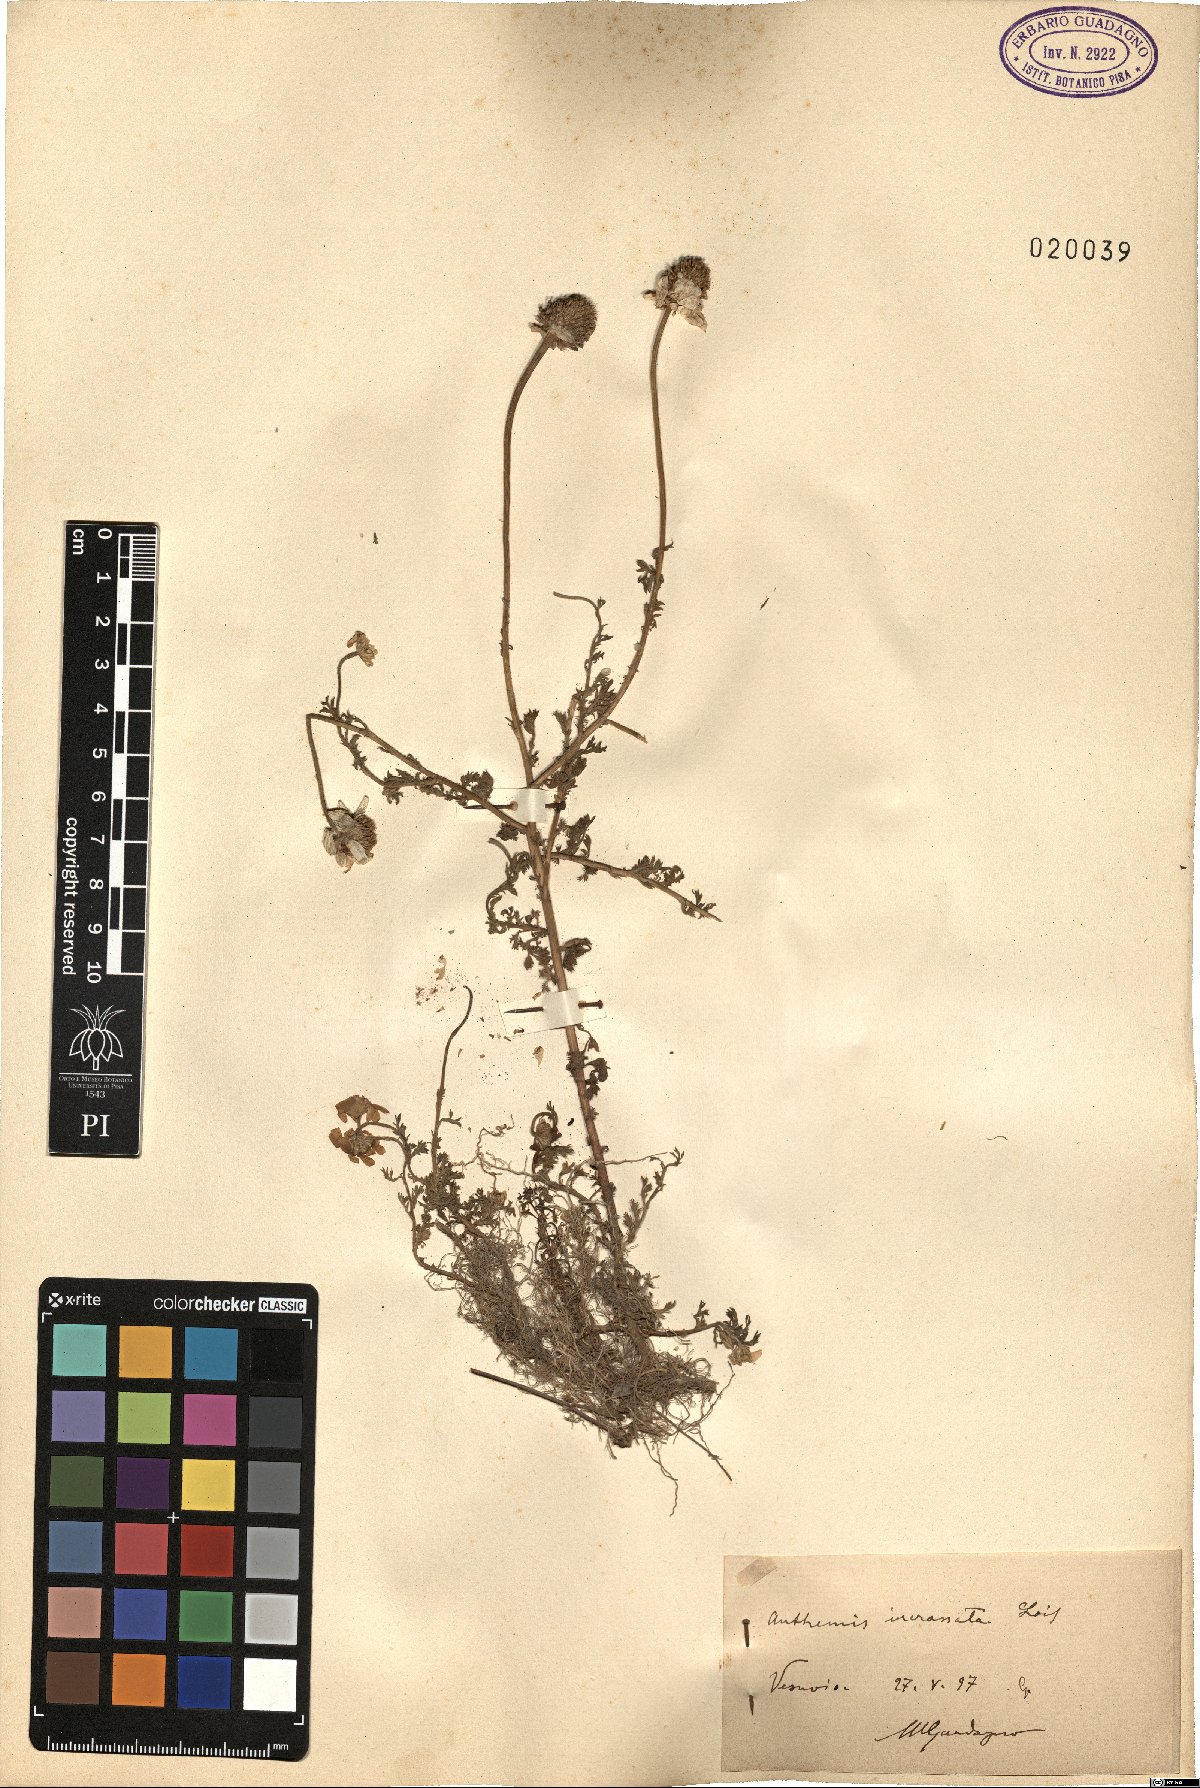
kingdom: Plantae
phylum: Tracheophyta
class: Magnoliopsida
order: Asterales
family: Asteraceae
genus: Anthemis
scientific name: Anthemis arvensis
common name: Corn chamomile
